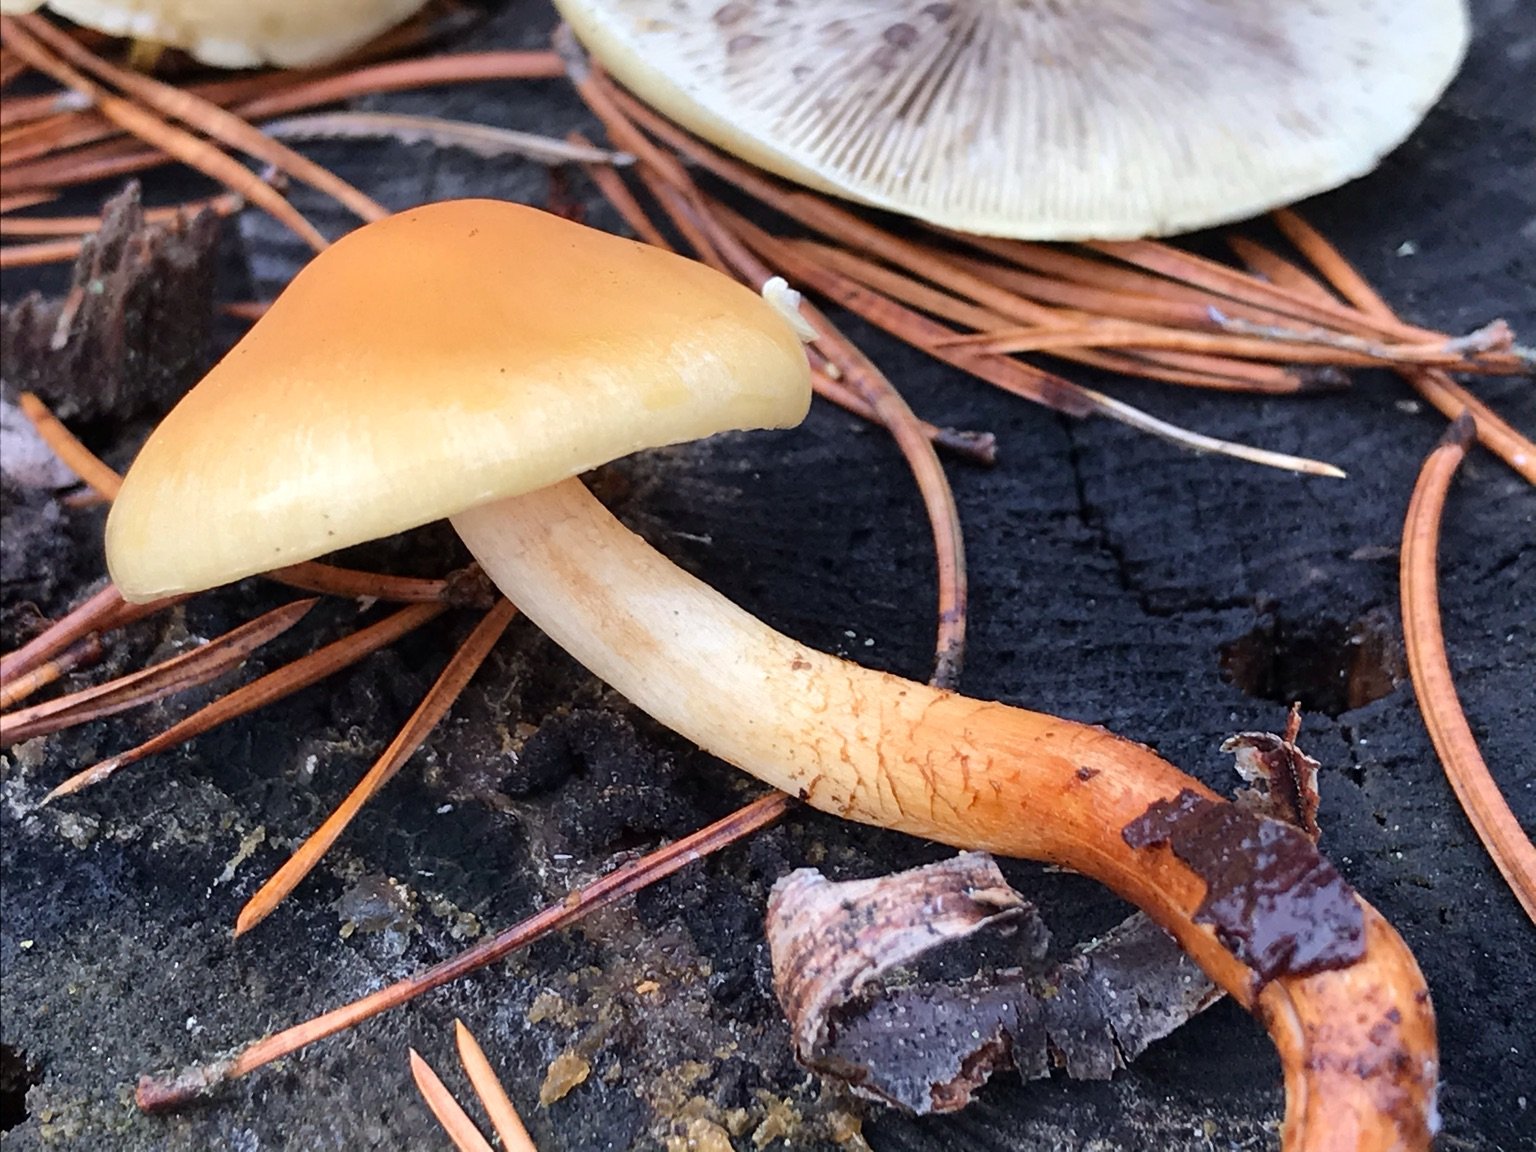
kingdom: Fungi
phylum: Basidiomycota
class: Agaricomycetes
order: Agaricales
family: Strophariaceae
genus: Hypholoma
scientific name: Hypholoma capnoides
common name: gran-svovlhat
